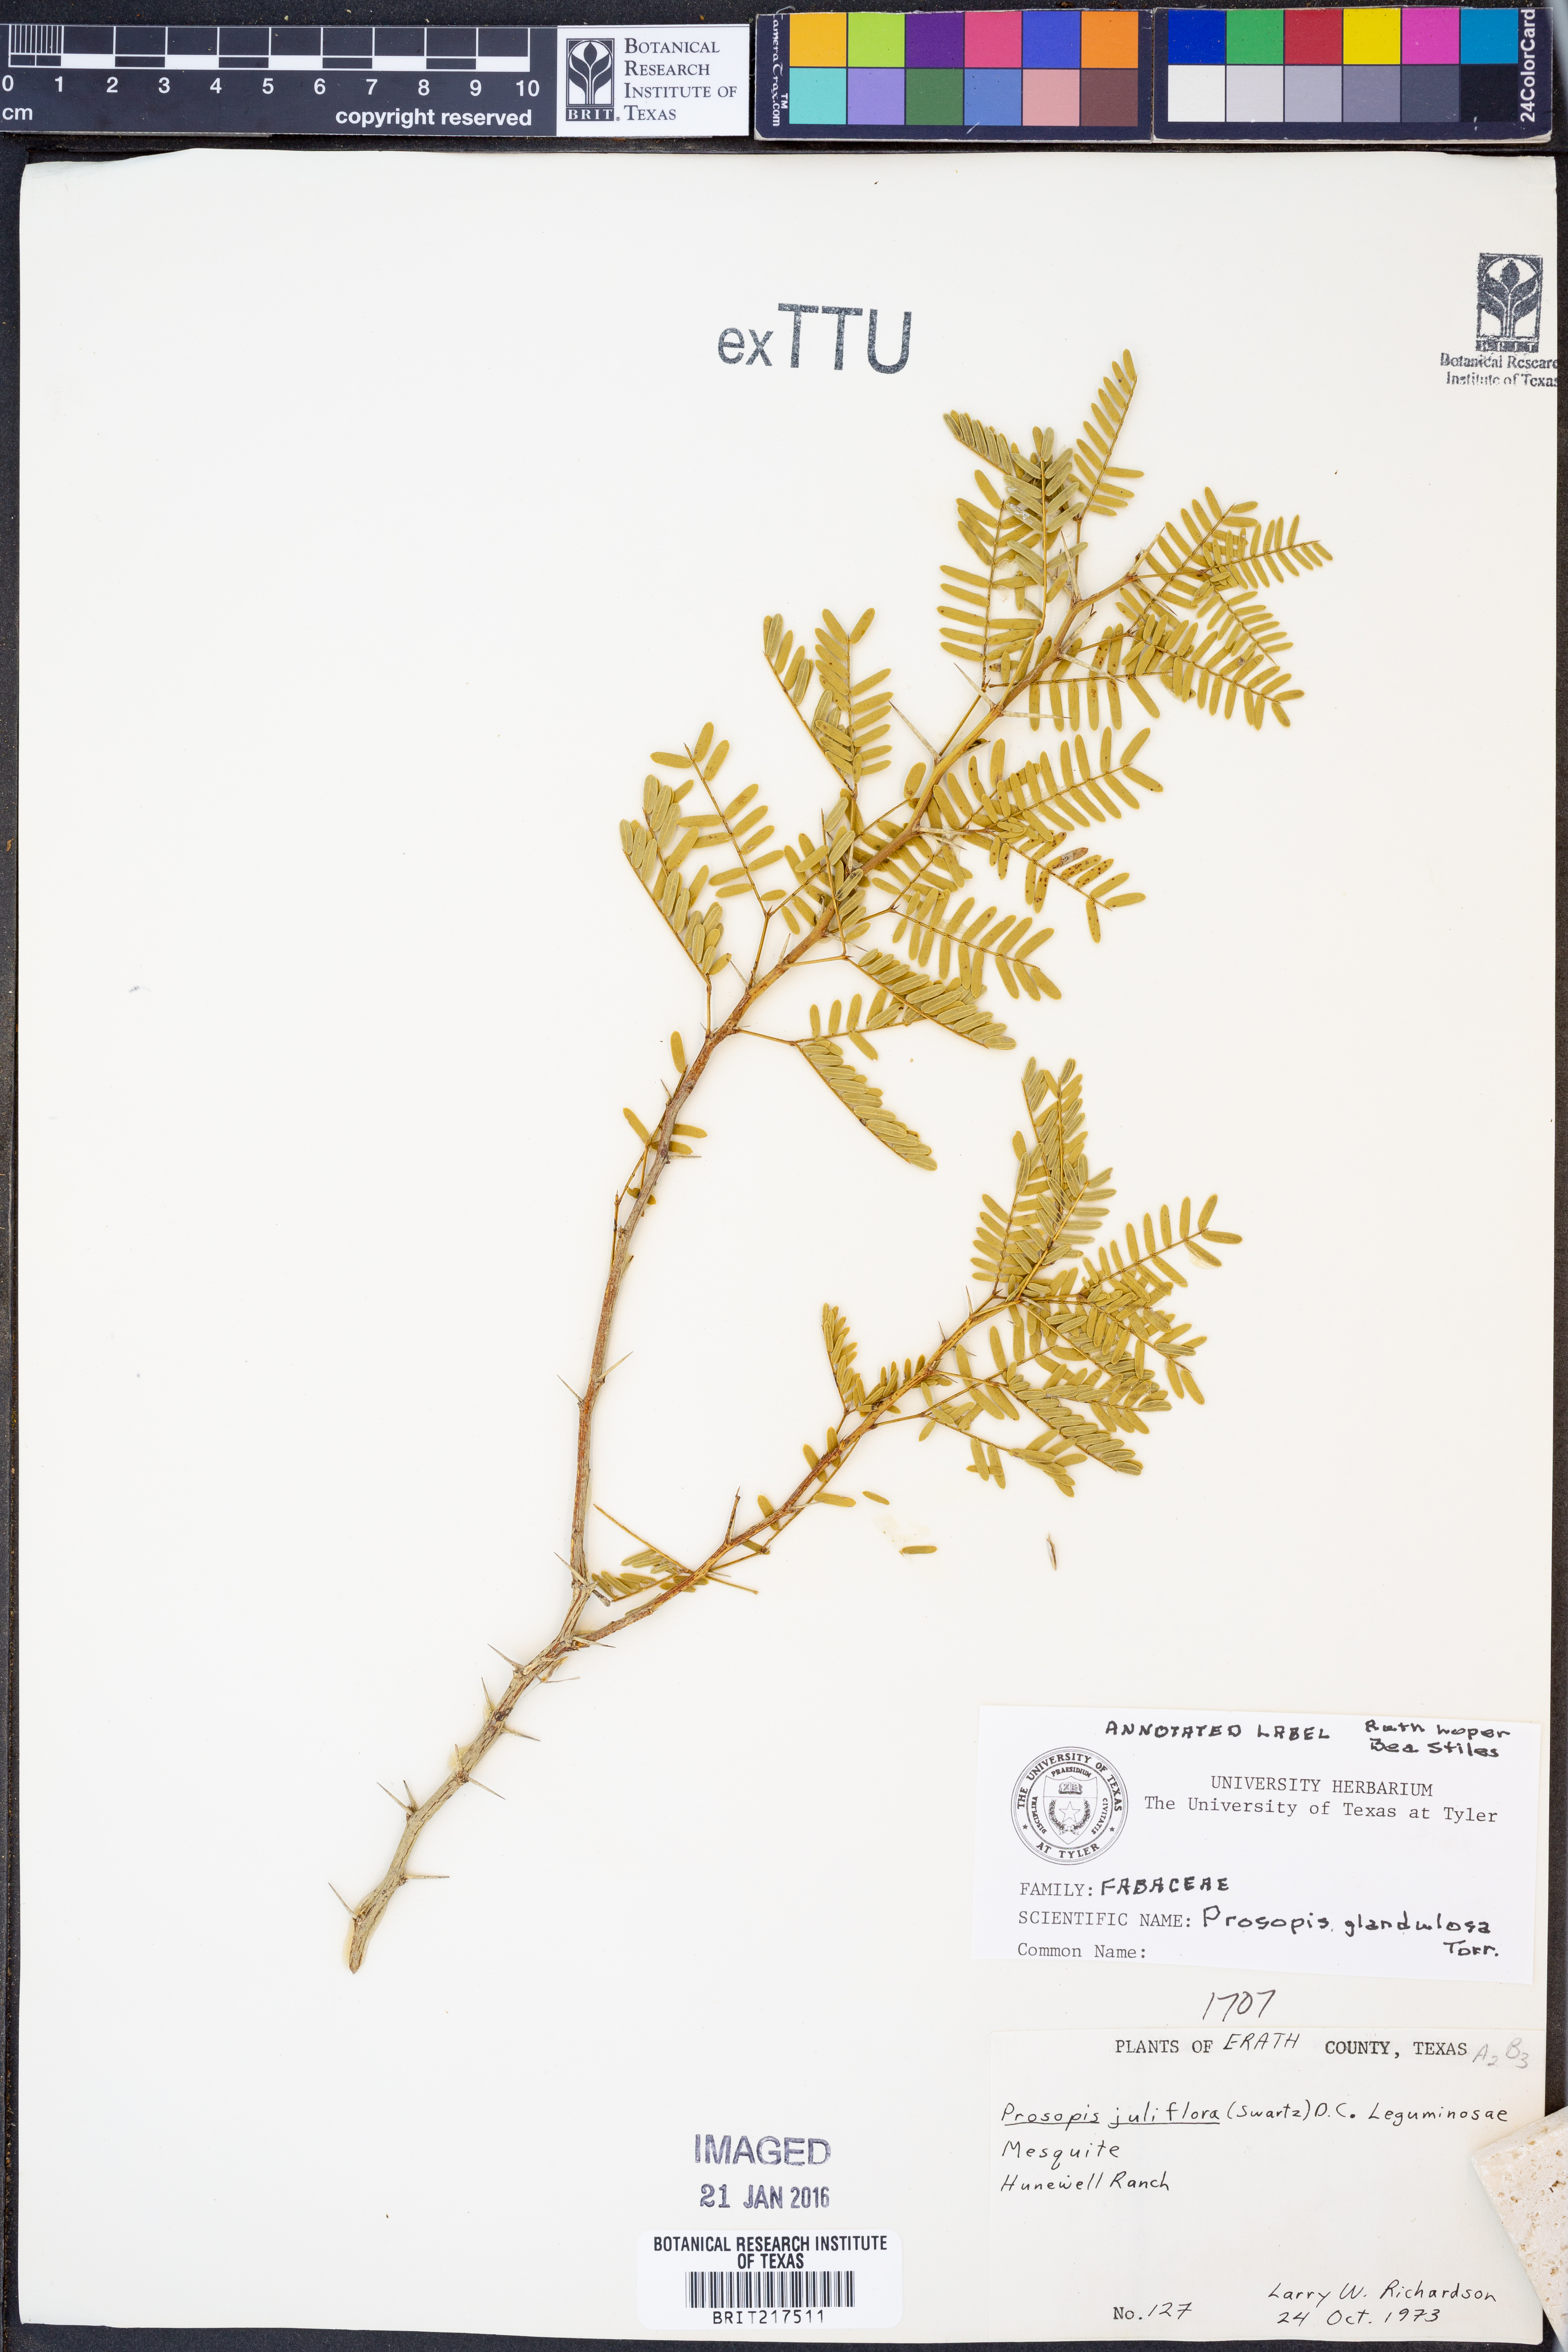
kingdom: Plantae
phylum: Tracheophyta
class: Magnoliopsida
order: Fabales
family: Fabaceae
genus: Prosopis
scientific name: Prosopis glandulosa
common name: Honey mesquite
